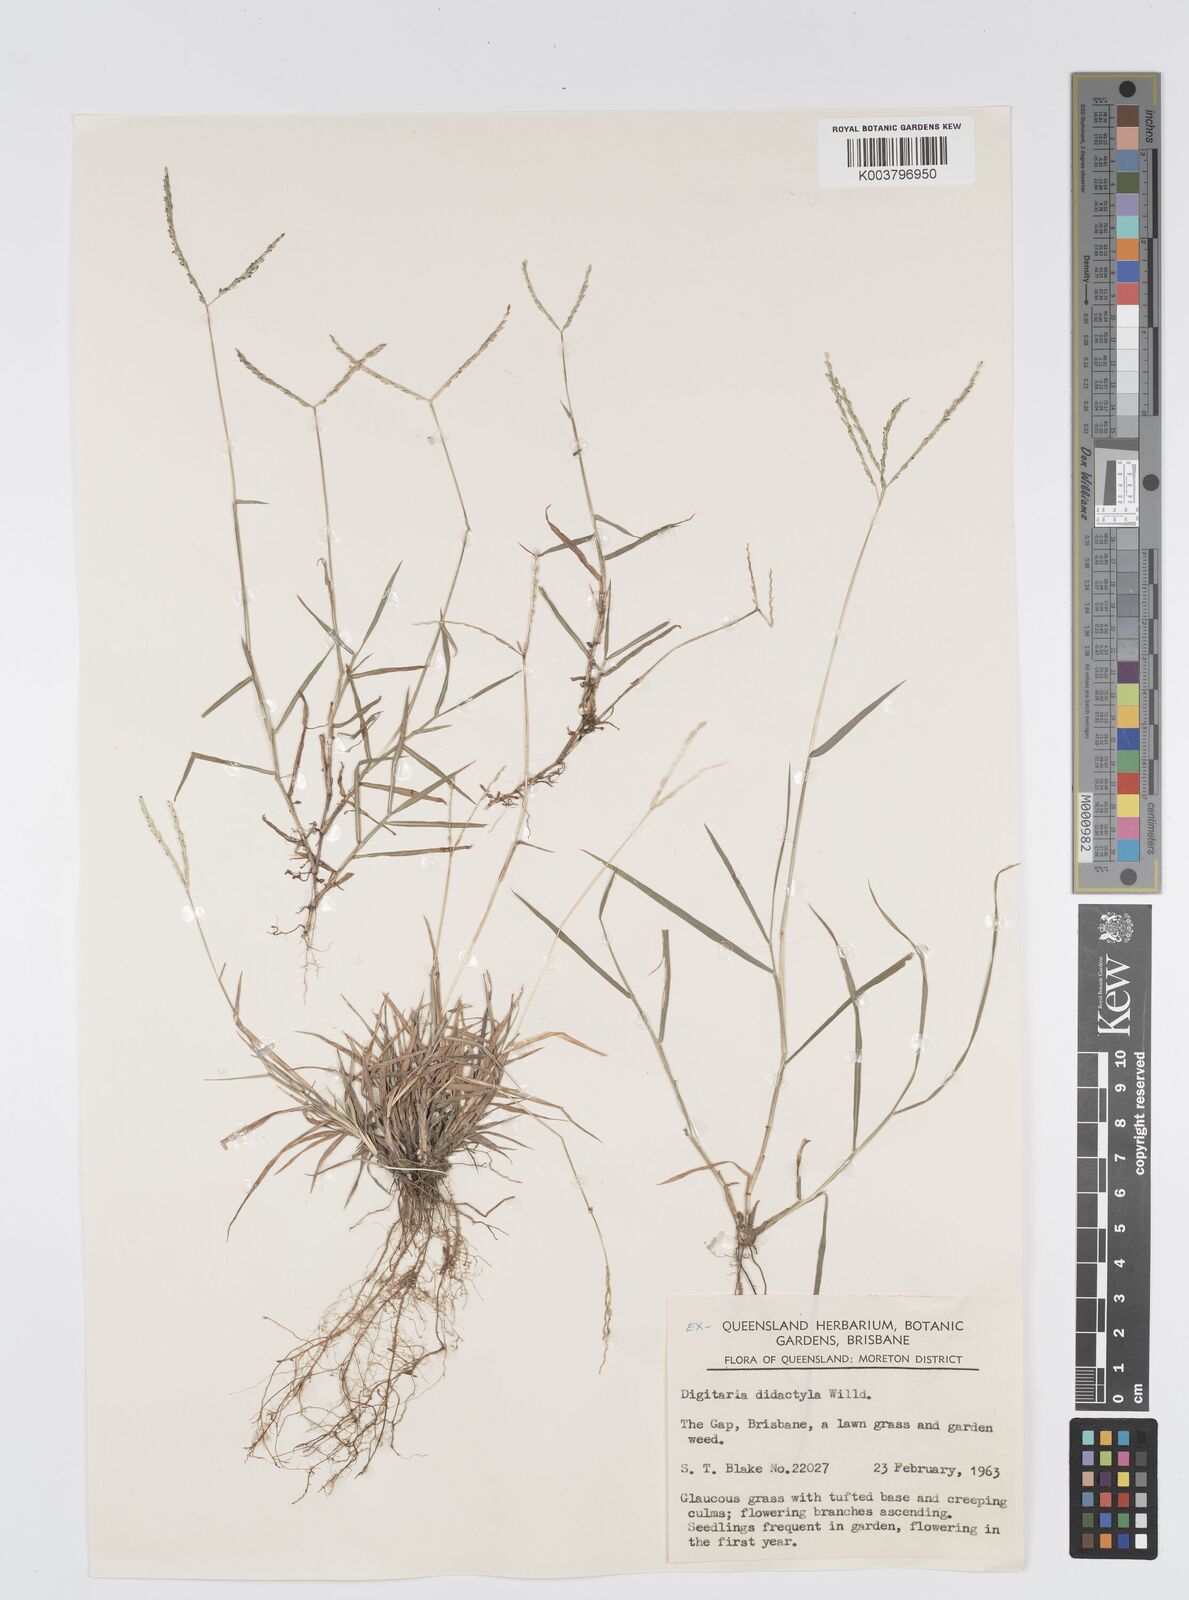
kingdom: Plantae
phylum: Tracheophyta
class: Liliopsida
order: Poales
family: Poaceae
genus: Digitaria
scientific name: Digitaria didactyla
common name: Blue couch
